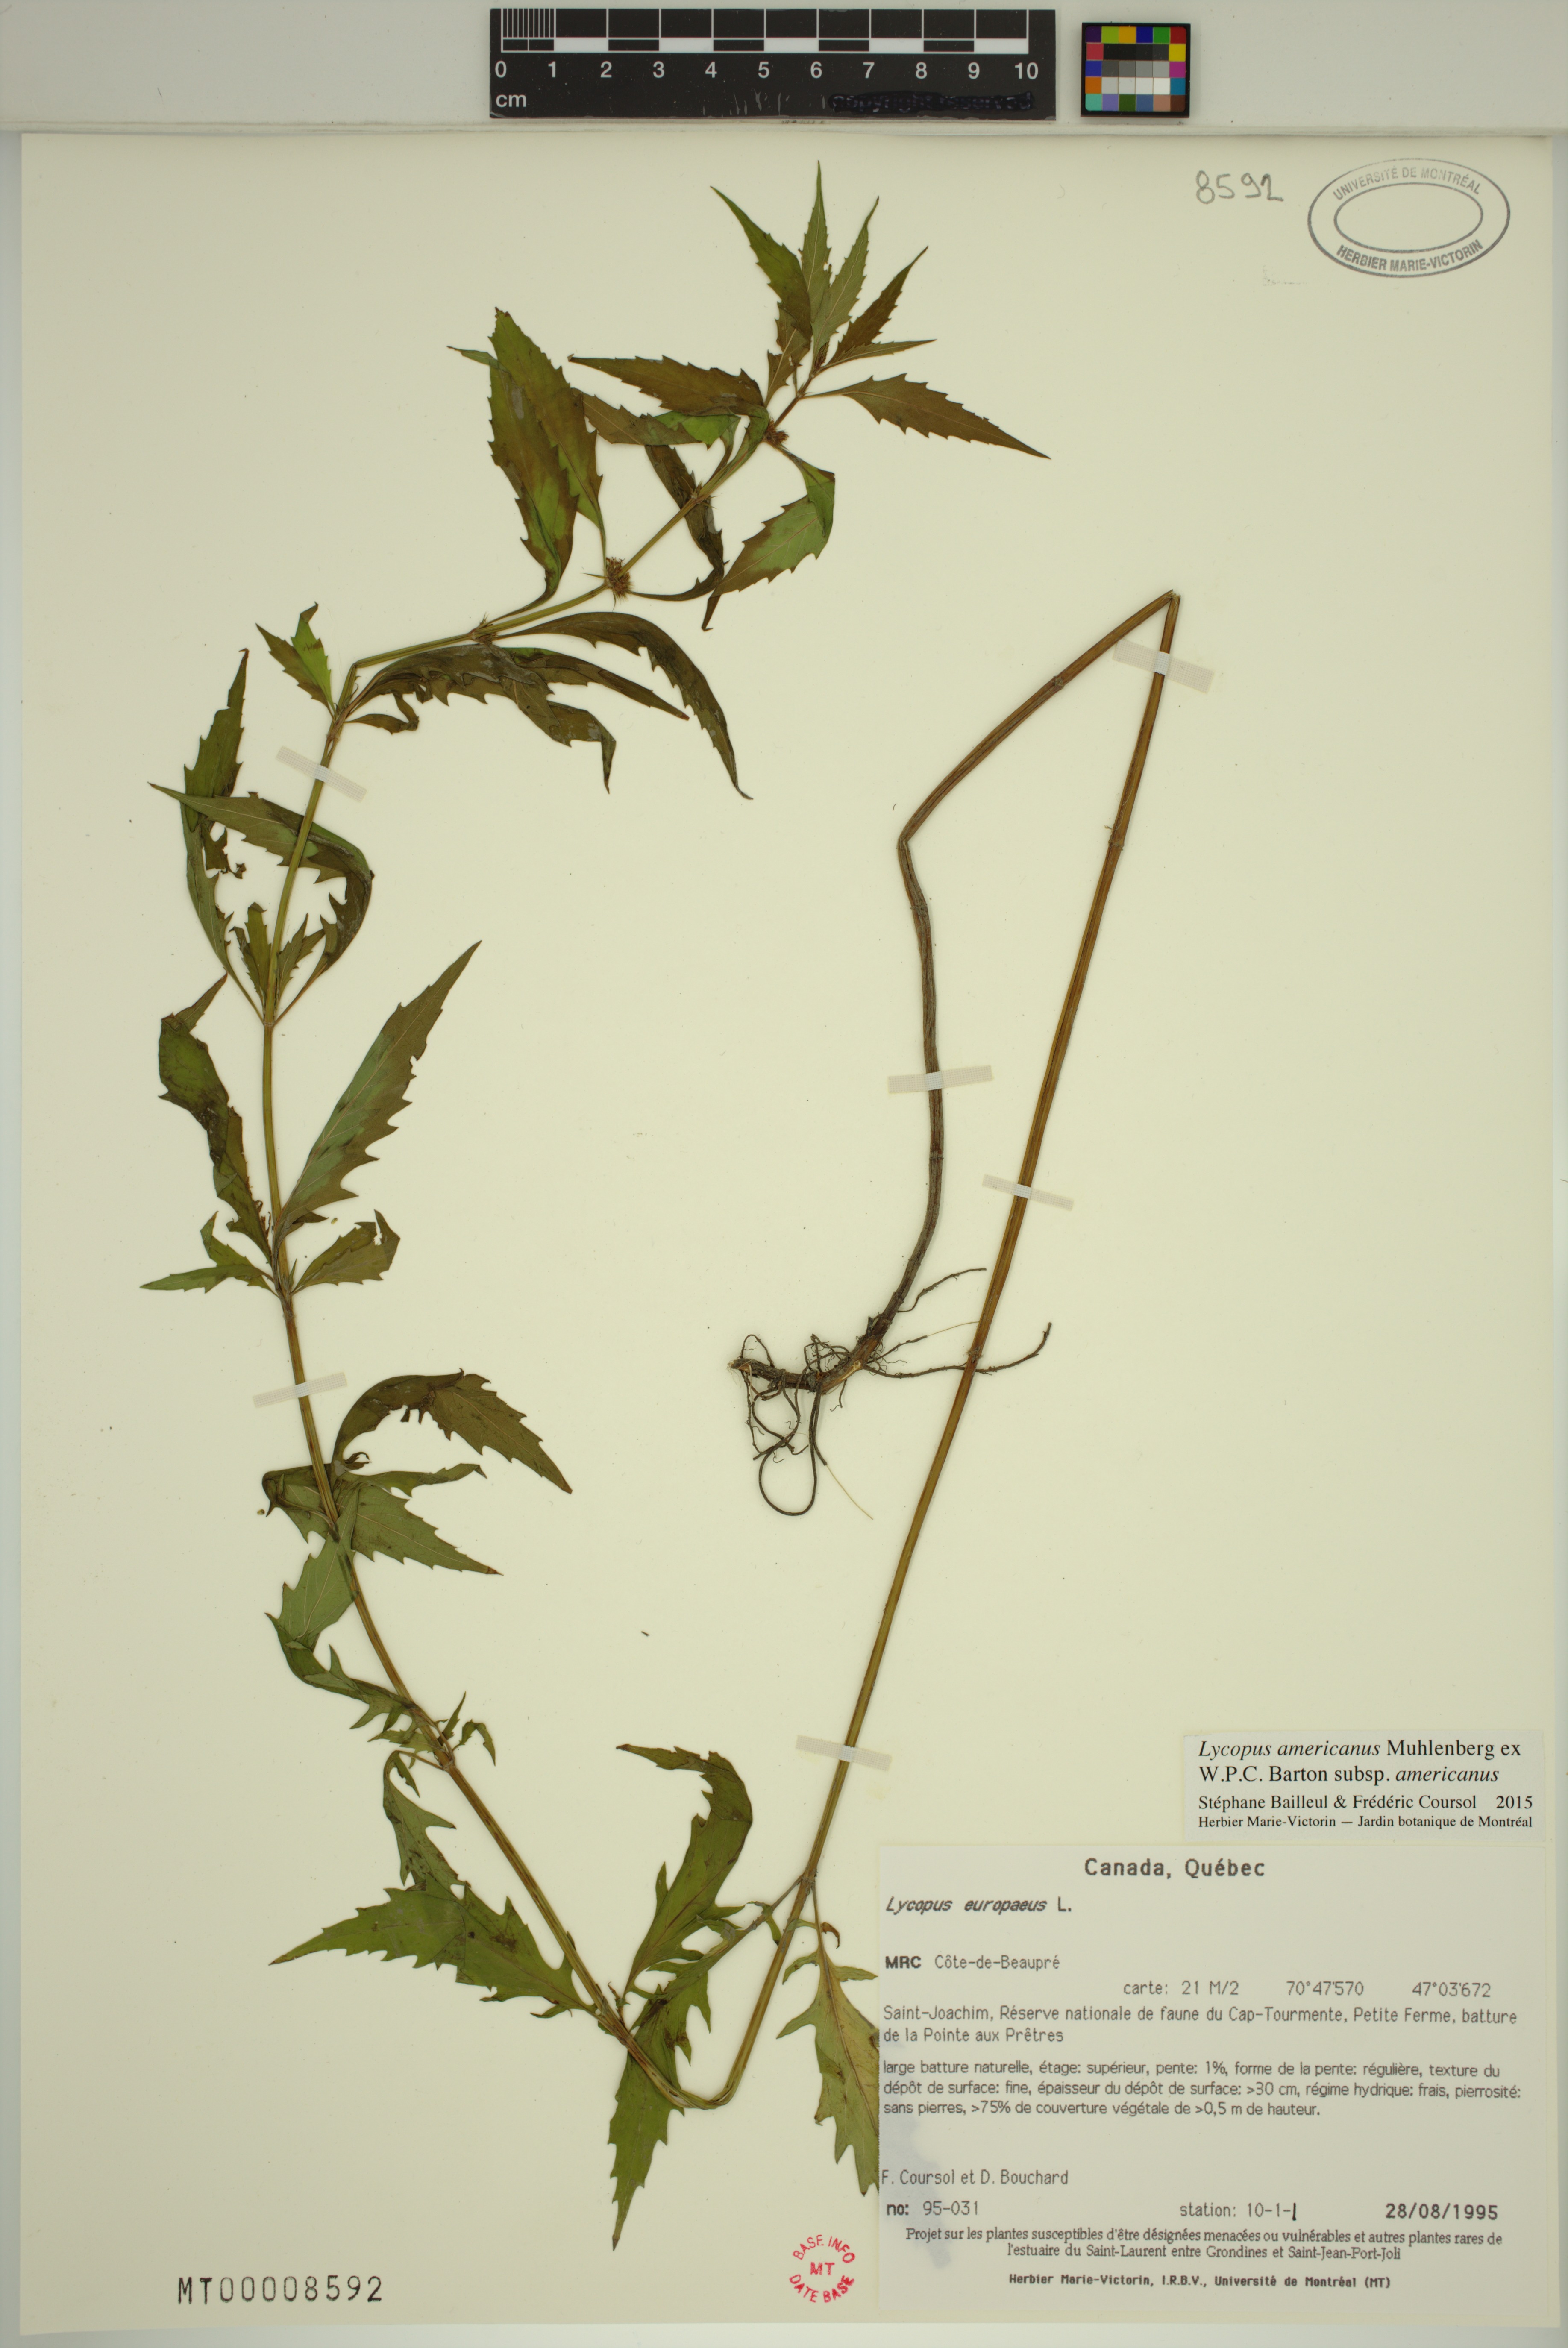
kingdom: Plantae
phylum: Tracheophyta
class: Magnoliopsida
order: Lamiales
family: Lamiaceae
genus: Lycopus
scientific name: Lycopus americanus
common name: American bugleweed
